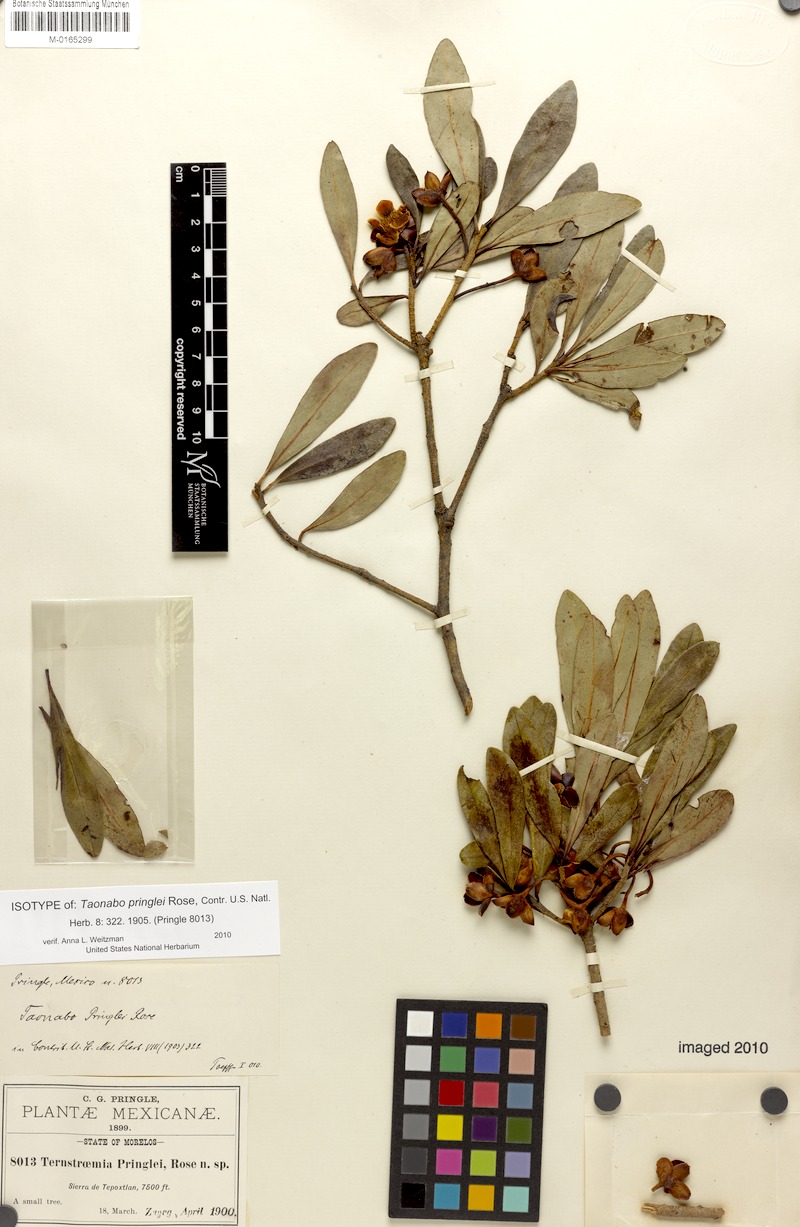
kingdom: Plantae
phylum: Tracheophyta
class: Magnoliopsida
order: Ericales
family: Pentaphylacaceae
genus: Ternstroemia
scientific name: Ternstroemia lineata
